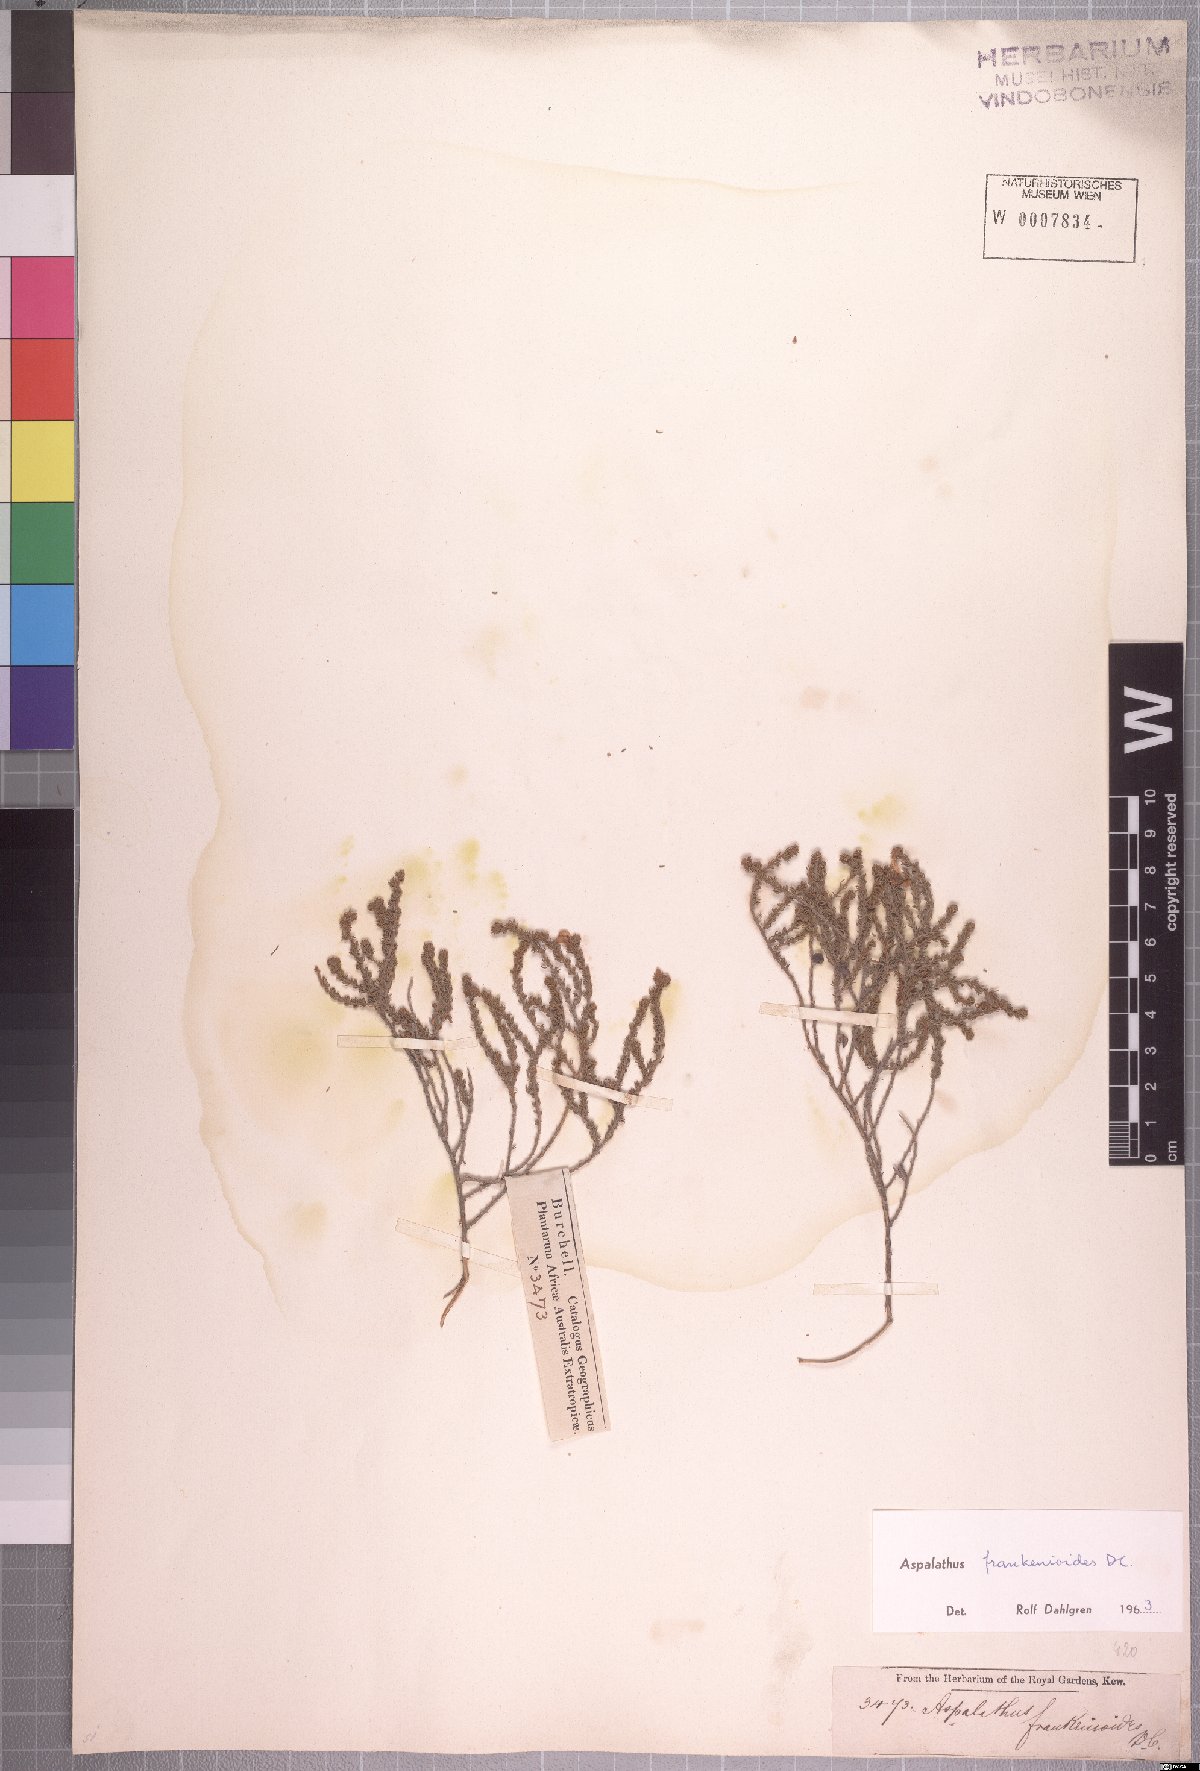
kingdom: Plantae
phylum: Tracheophyta
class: Magnoliopsida
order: Fabales
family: Fabaceae
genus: Aspalathus
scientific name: Aspalathus frankenioides
